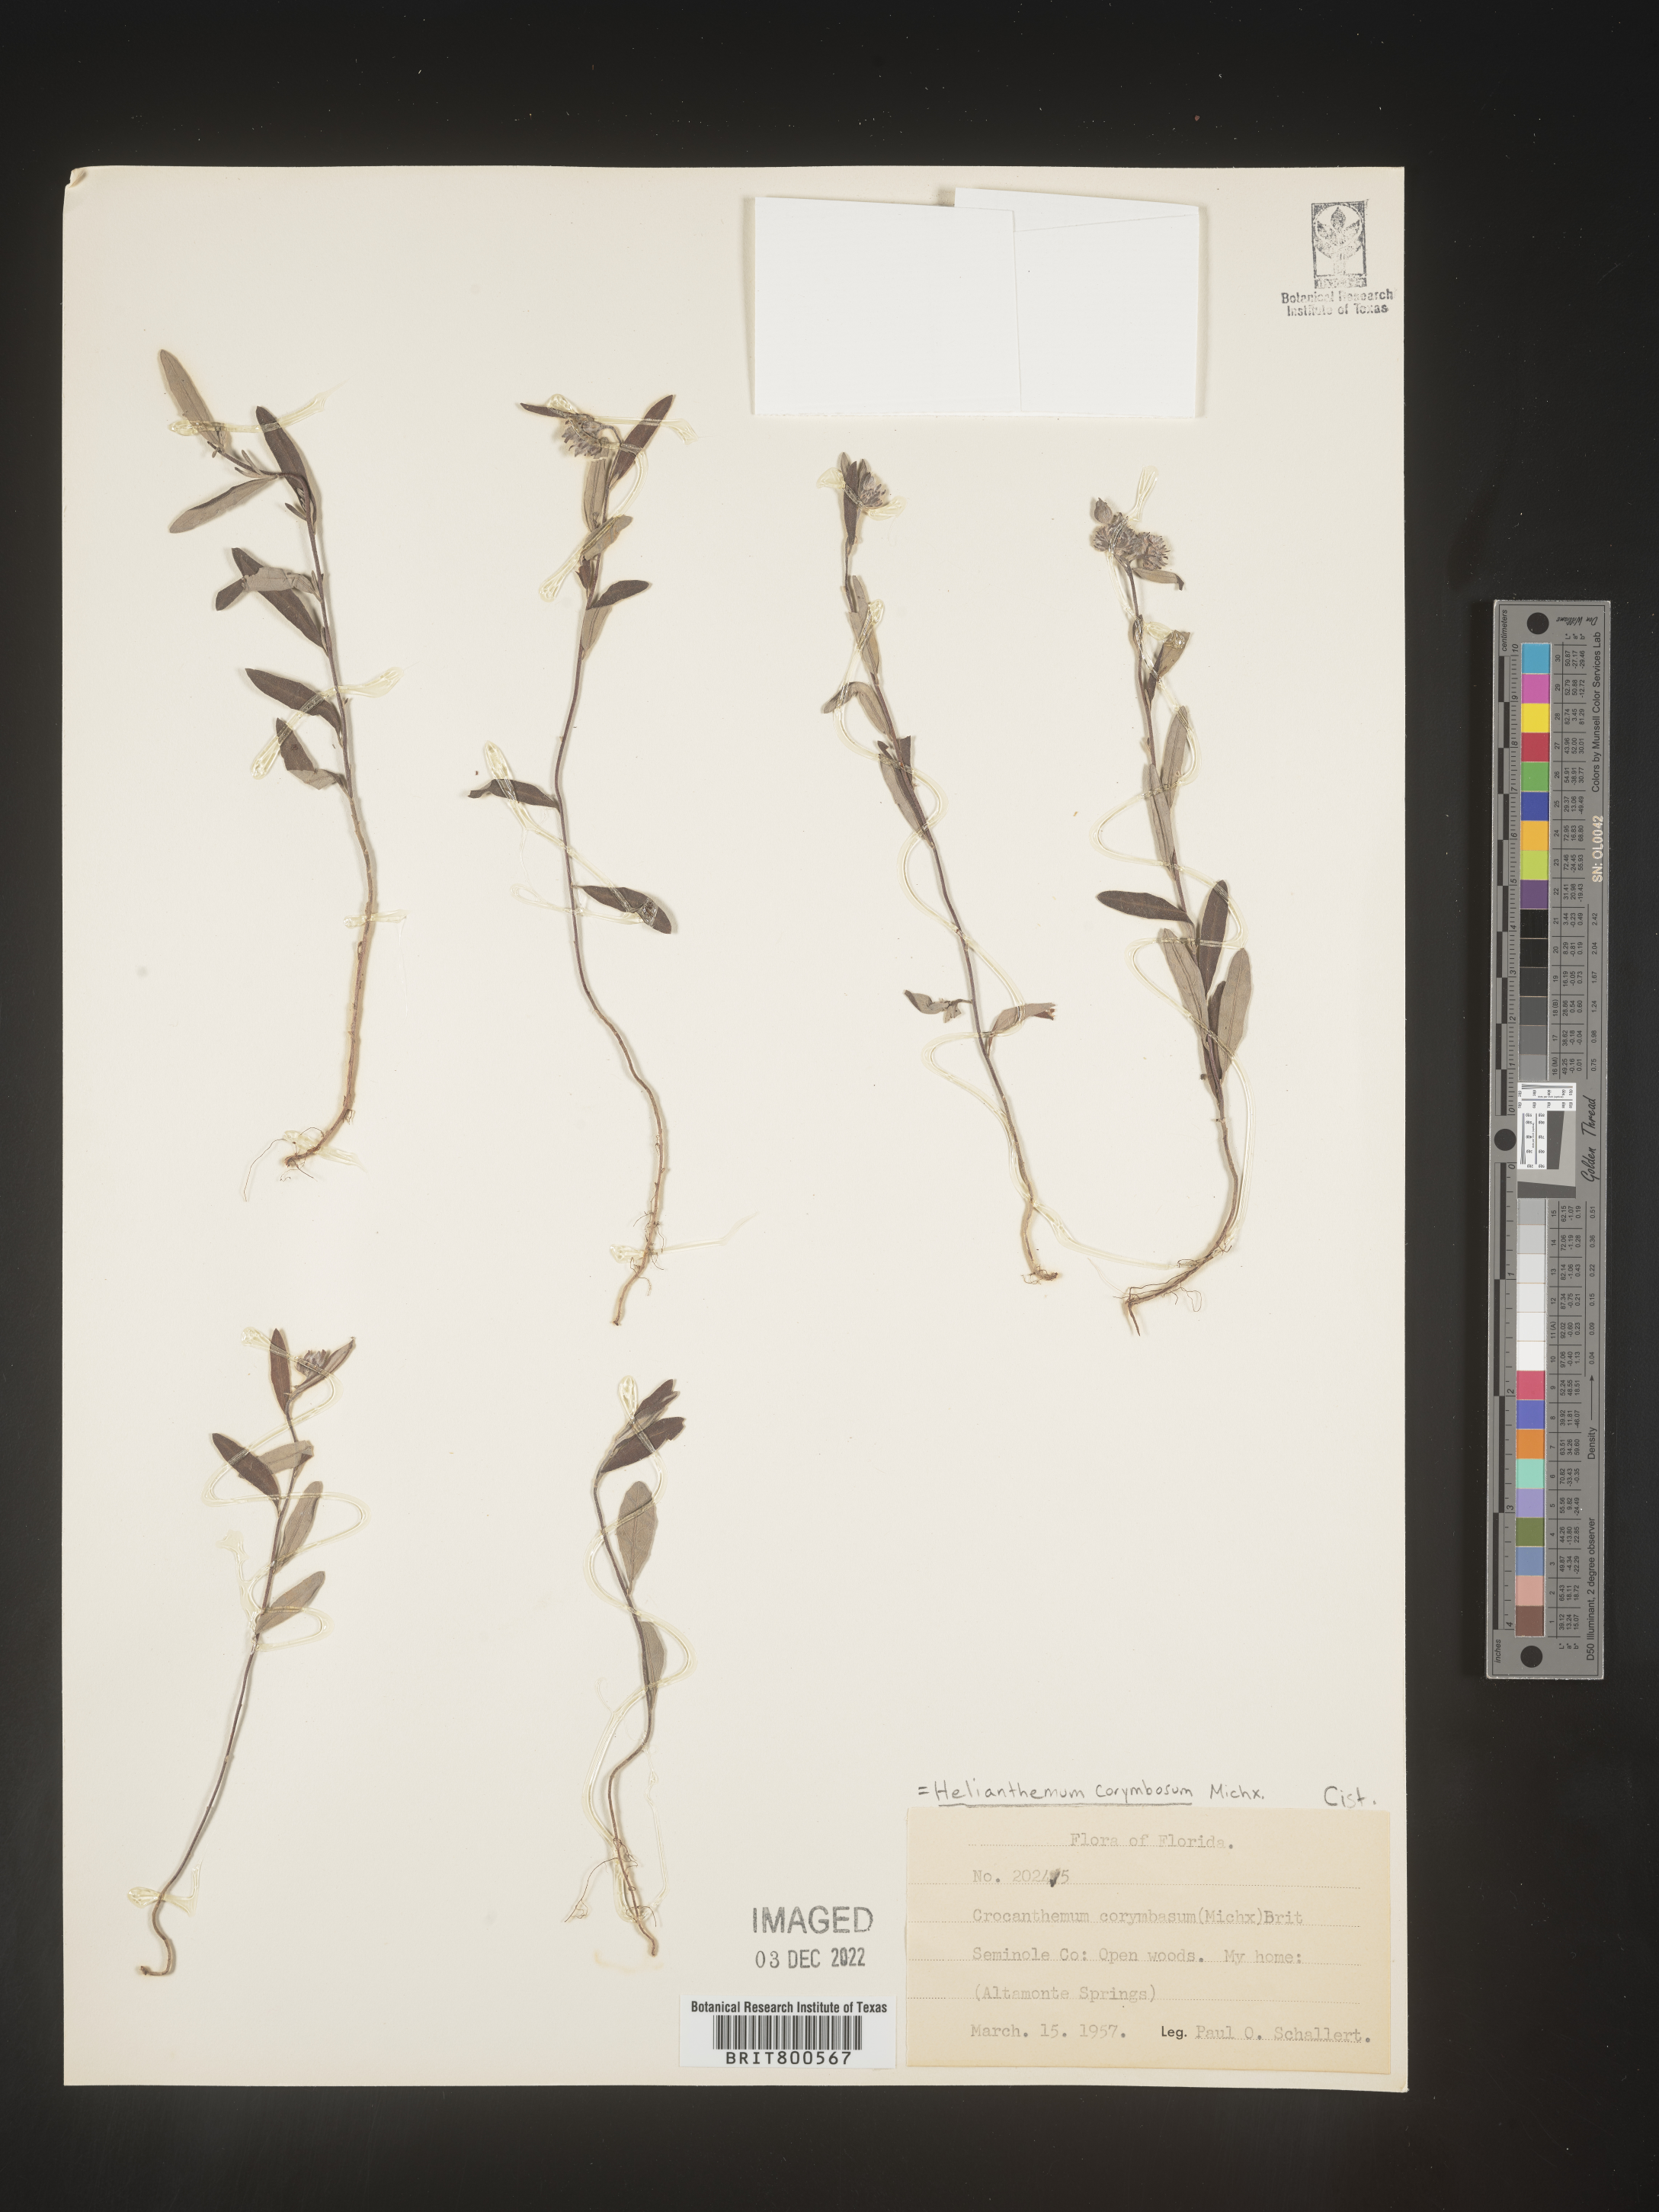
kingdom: Plantae
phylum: Tracheophyta
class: Magnoliopsida
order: Malvales
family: Cistaceae
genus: Crocanthemum
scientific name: Crocanthemum corymbosum
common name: Pinebarren sun-rose
